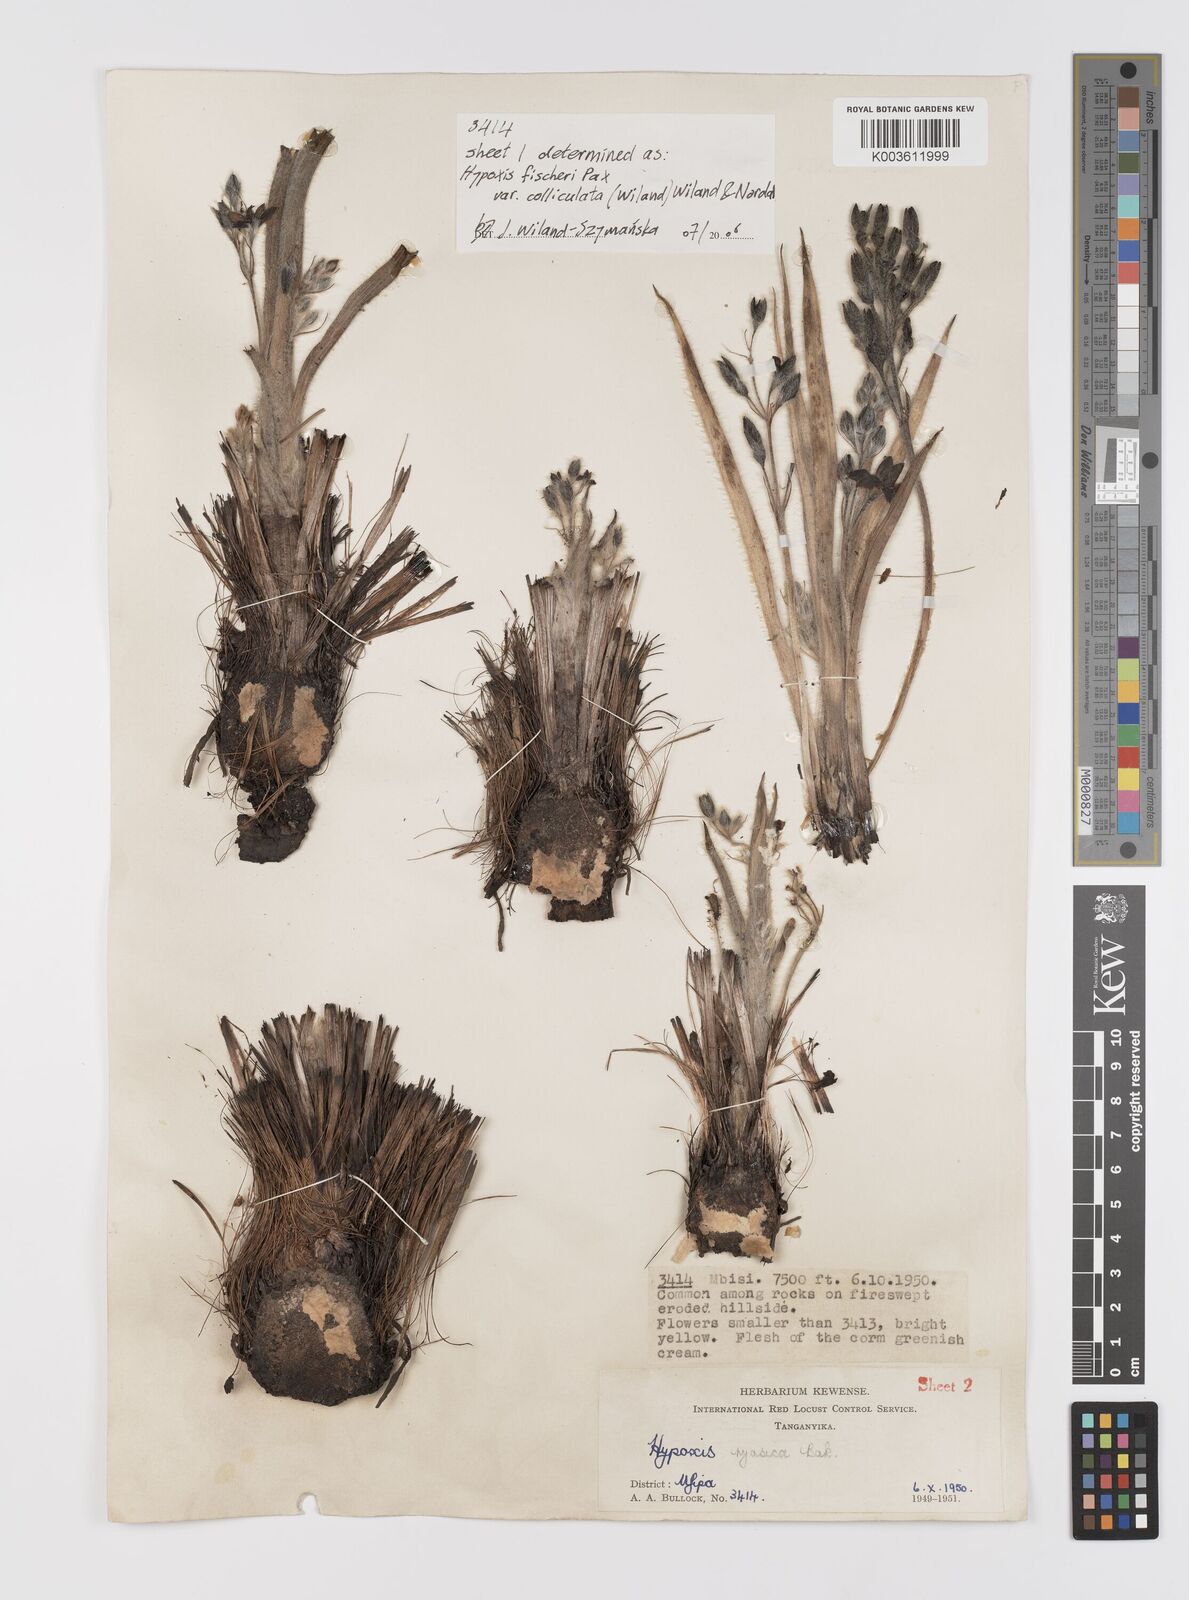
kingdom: Plantae
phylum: Tracheophyta
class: Liliopsida
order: Asparagales
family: Hypoxidaceae
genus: Hypoxis
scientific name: Hypoxis fischeri
